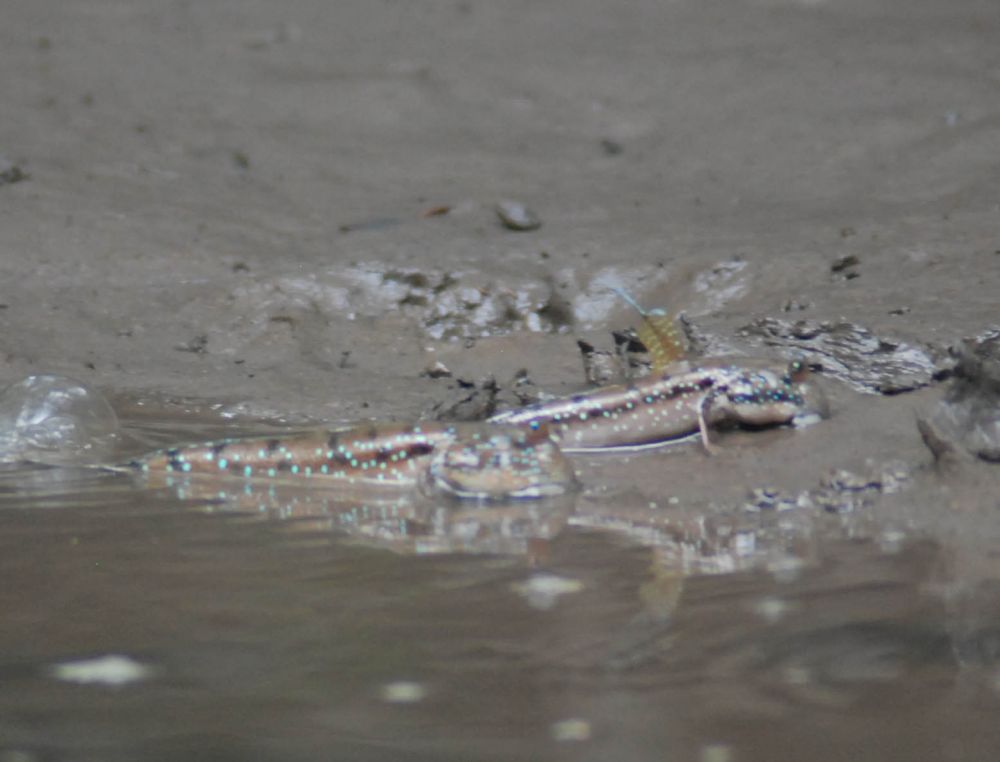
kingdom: Animalia
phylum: Chordata
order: Perciformes
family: Gobiidae
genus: Boleophthalmus
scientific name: Boleophthalmus boddarti
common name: Boddart's goggle-eyed goby
